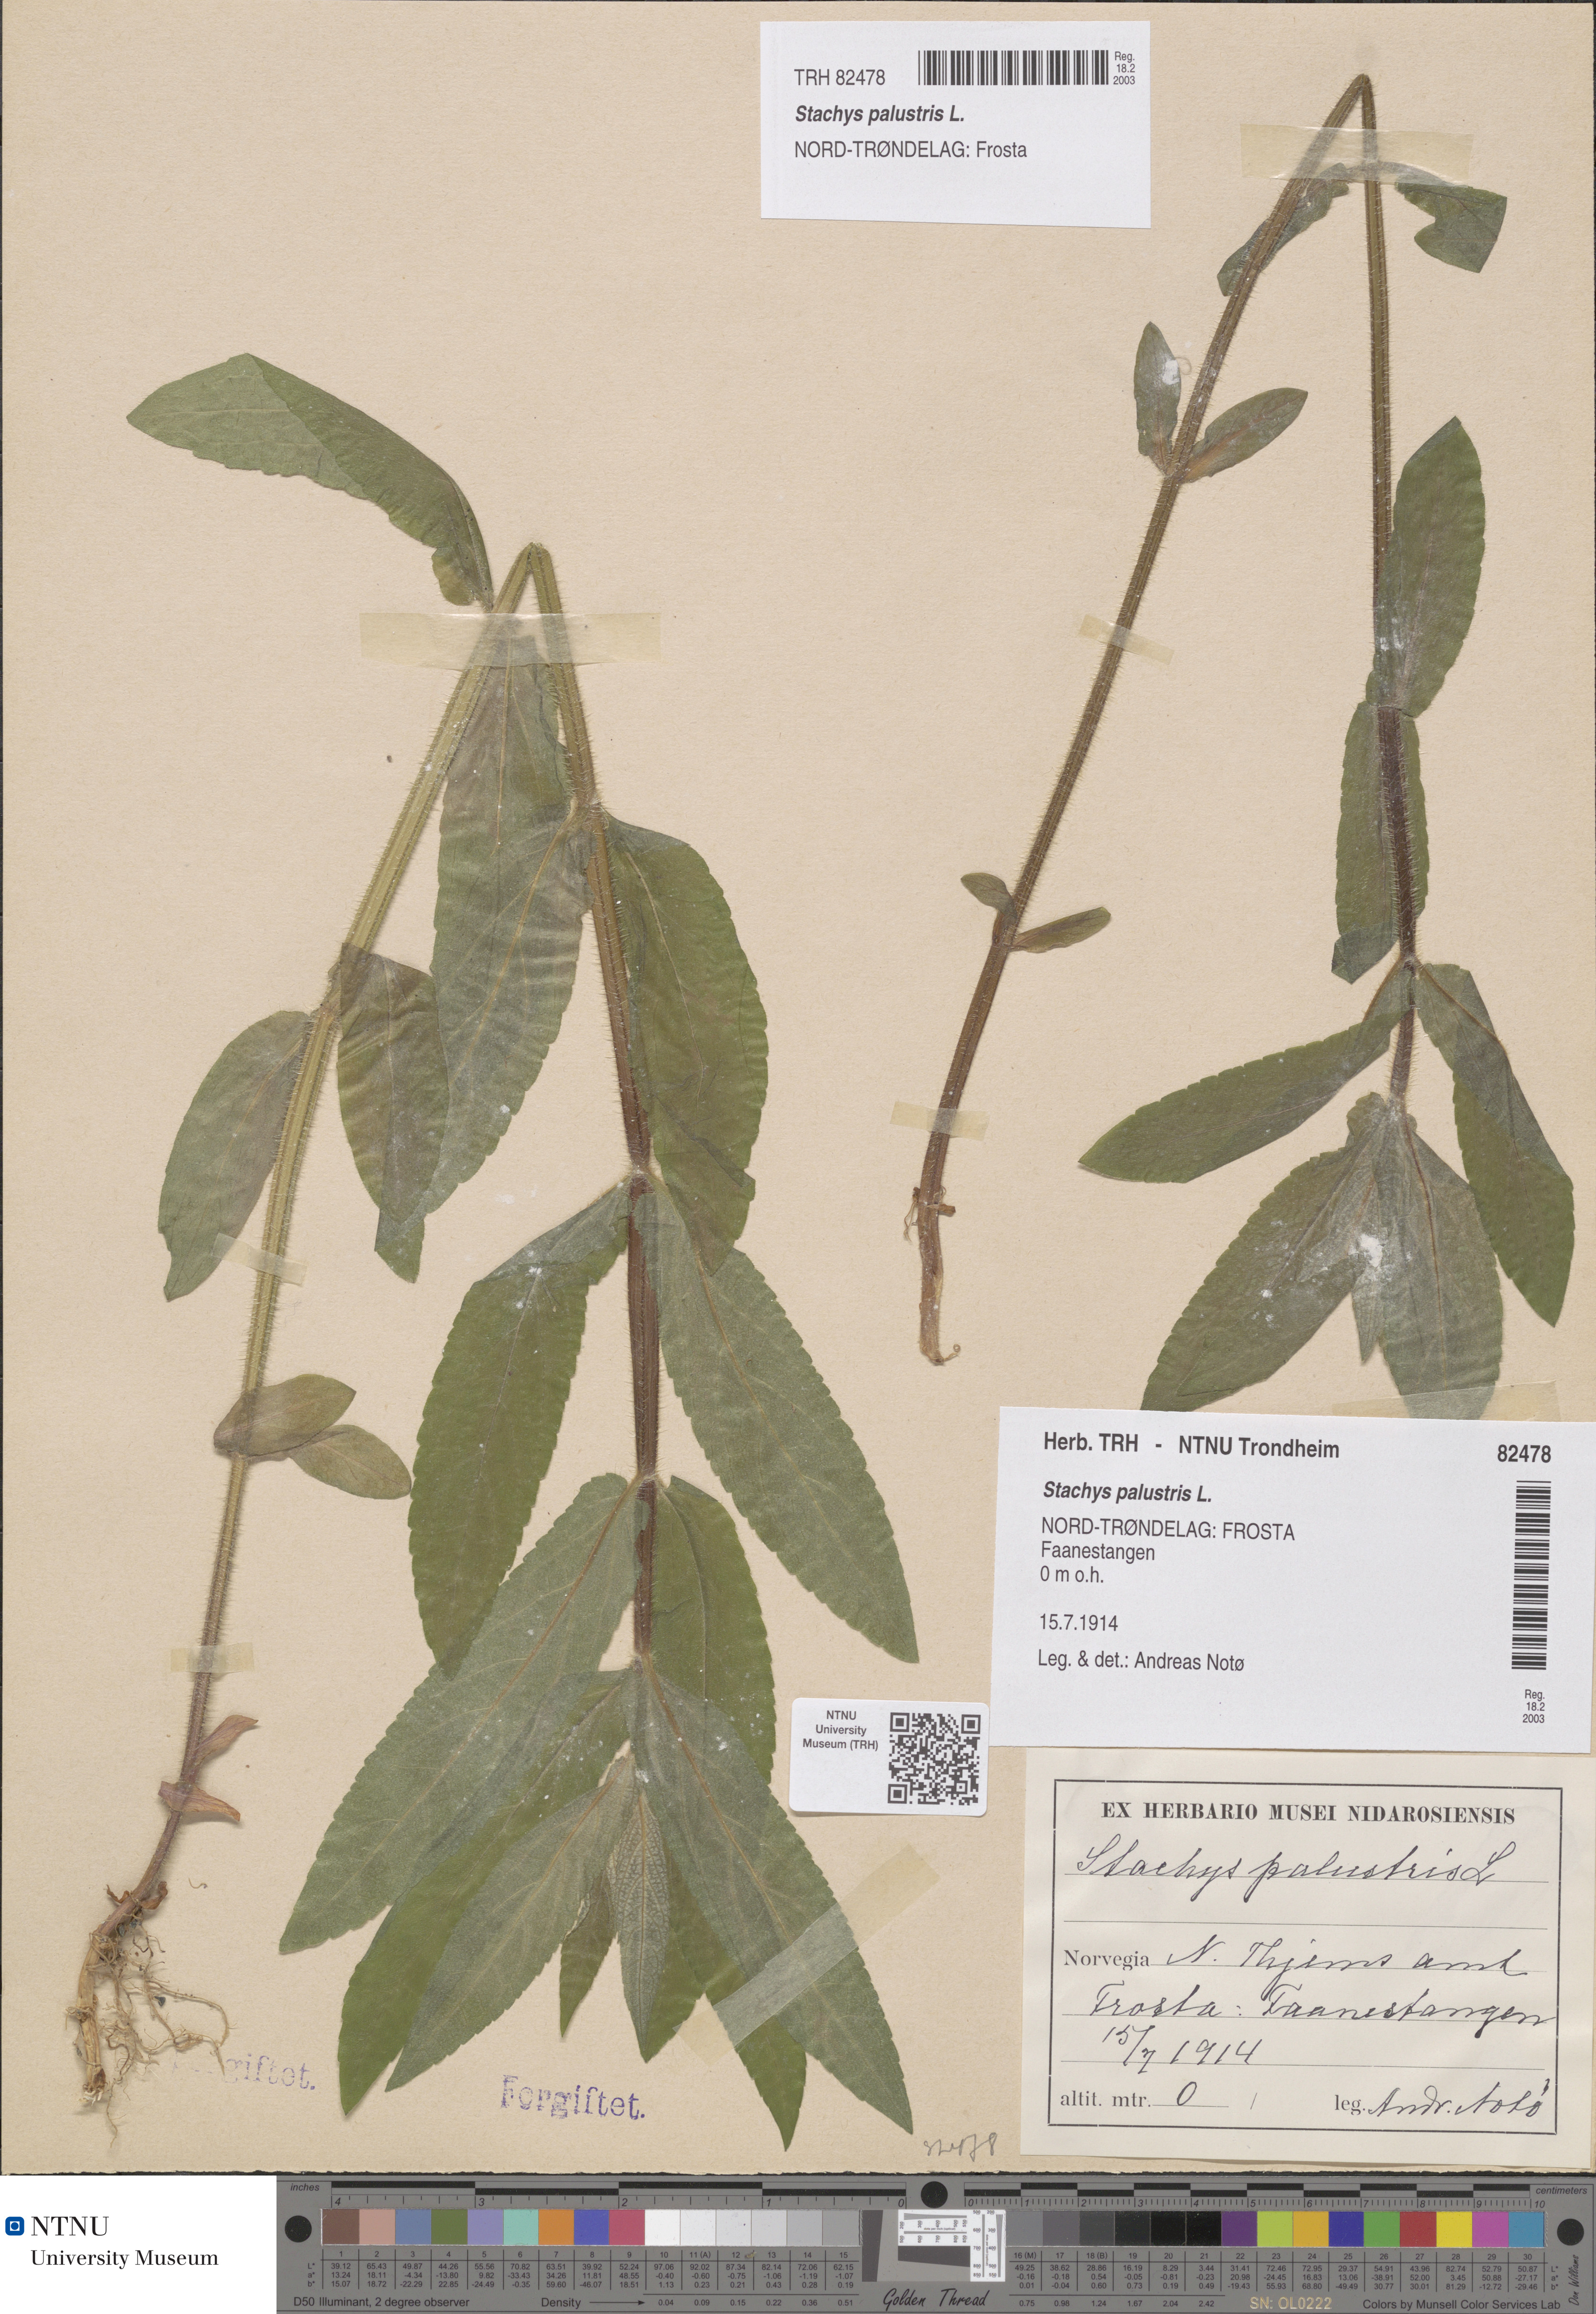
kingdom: Plantae
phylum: Tracheophyta
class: Magnoliopsida
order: Lamiales
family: Lamiaceae
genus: Stachys
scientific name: Stachys palustris
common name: Marsh woundwort
